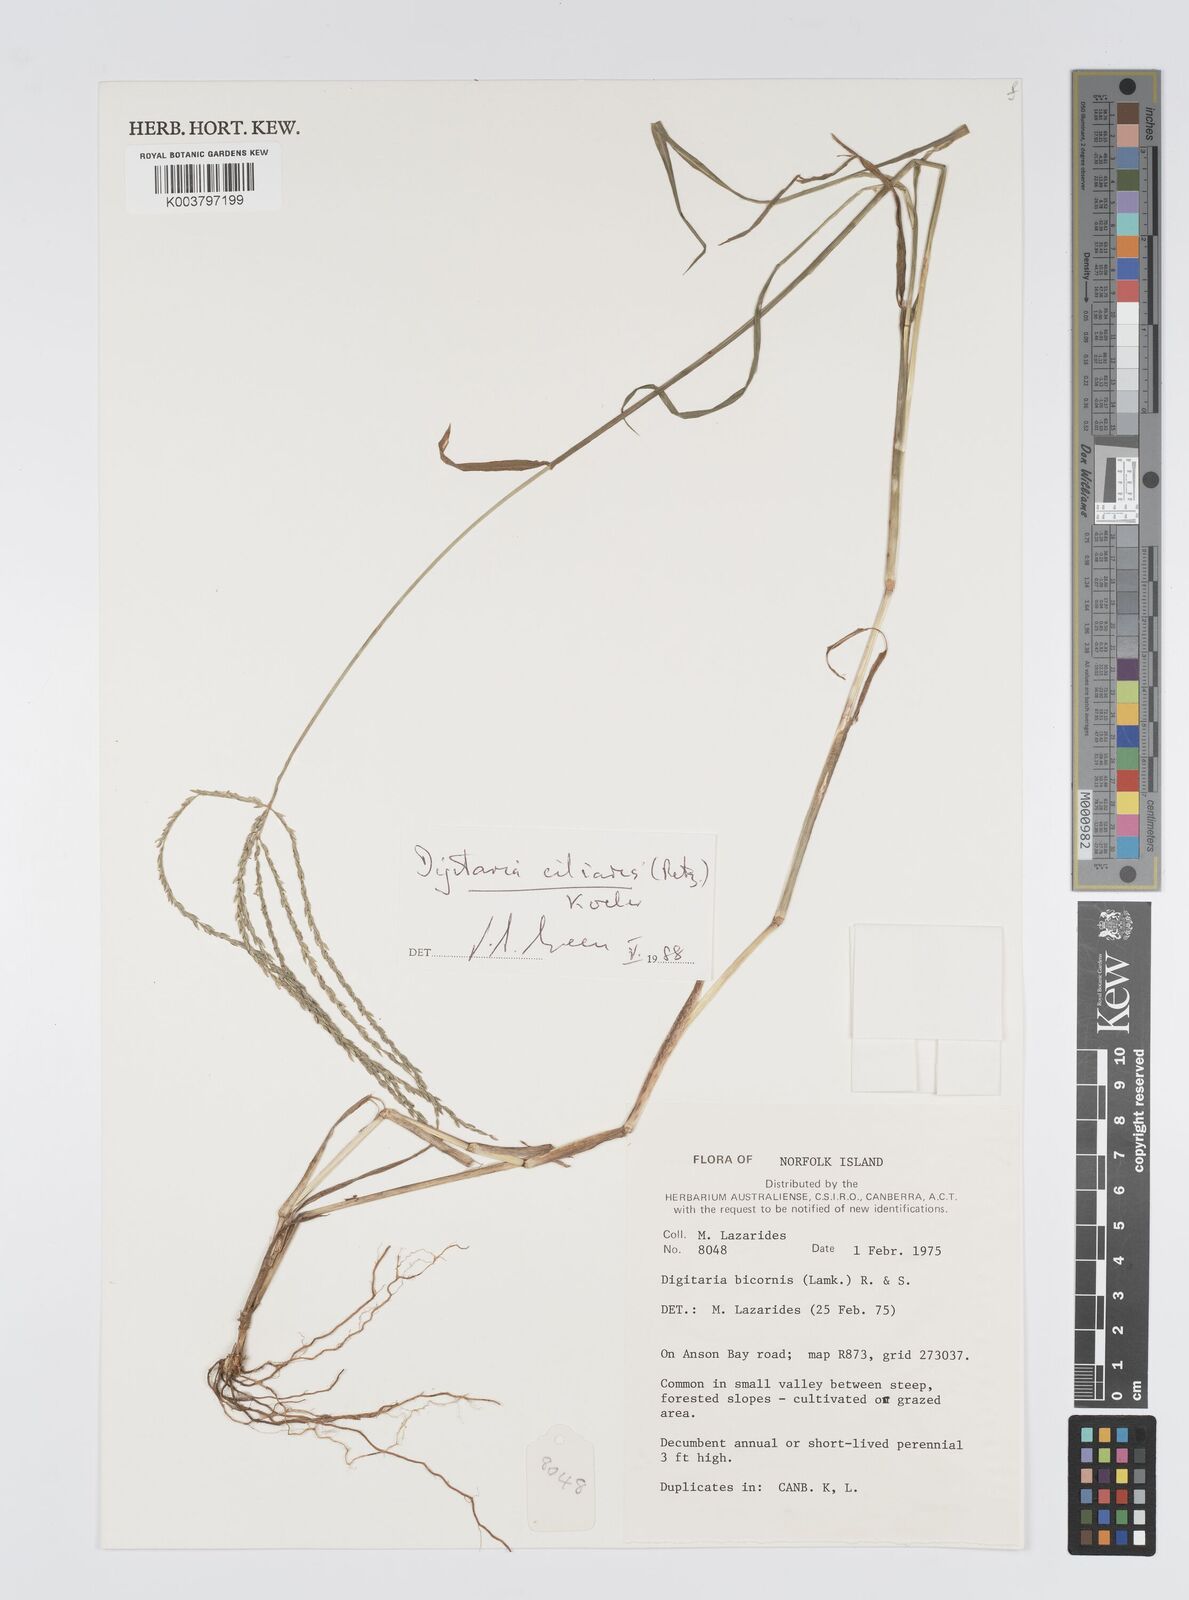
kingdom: Plantae
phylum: Tracheophyta
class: Liliopsida
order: Poales
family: Poaceae
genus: Digitaria
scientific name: Digitaria ciliaris
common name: Tropical finger-grass
